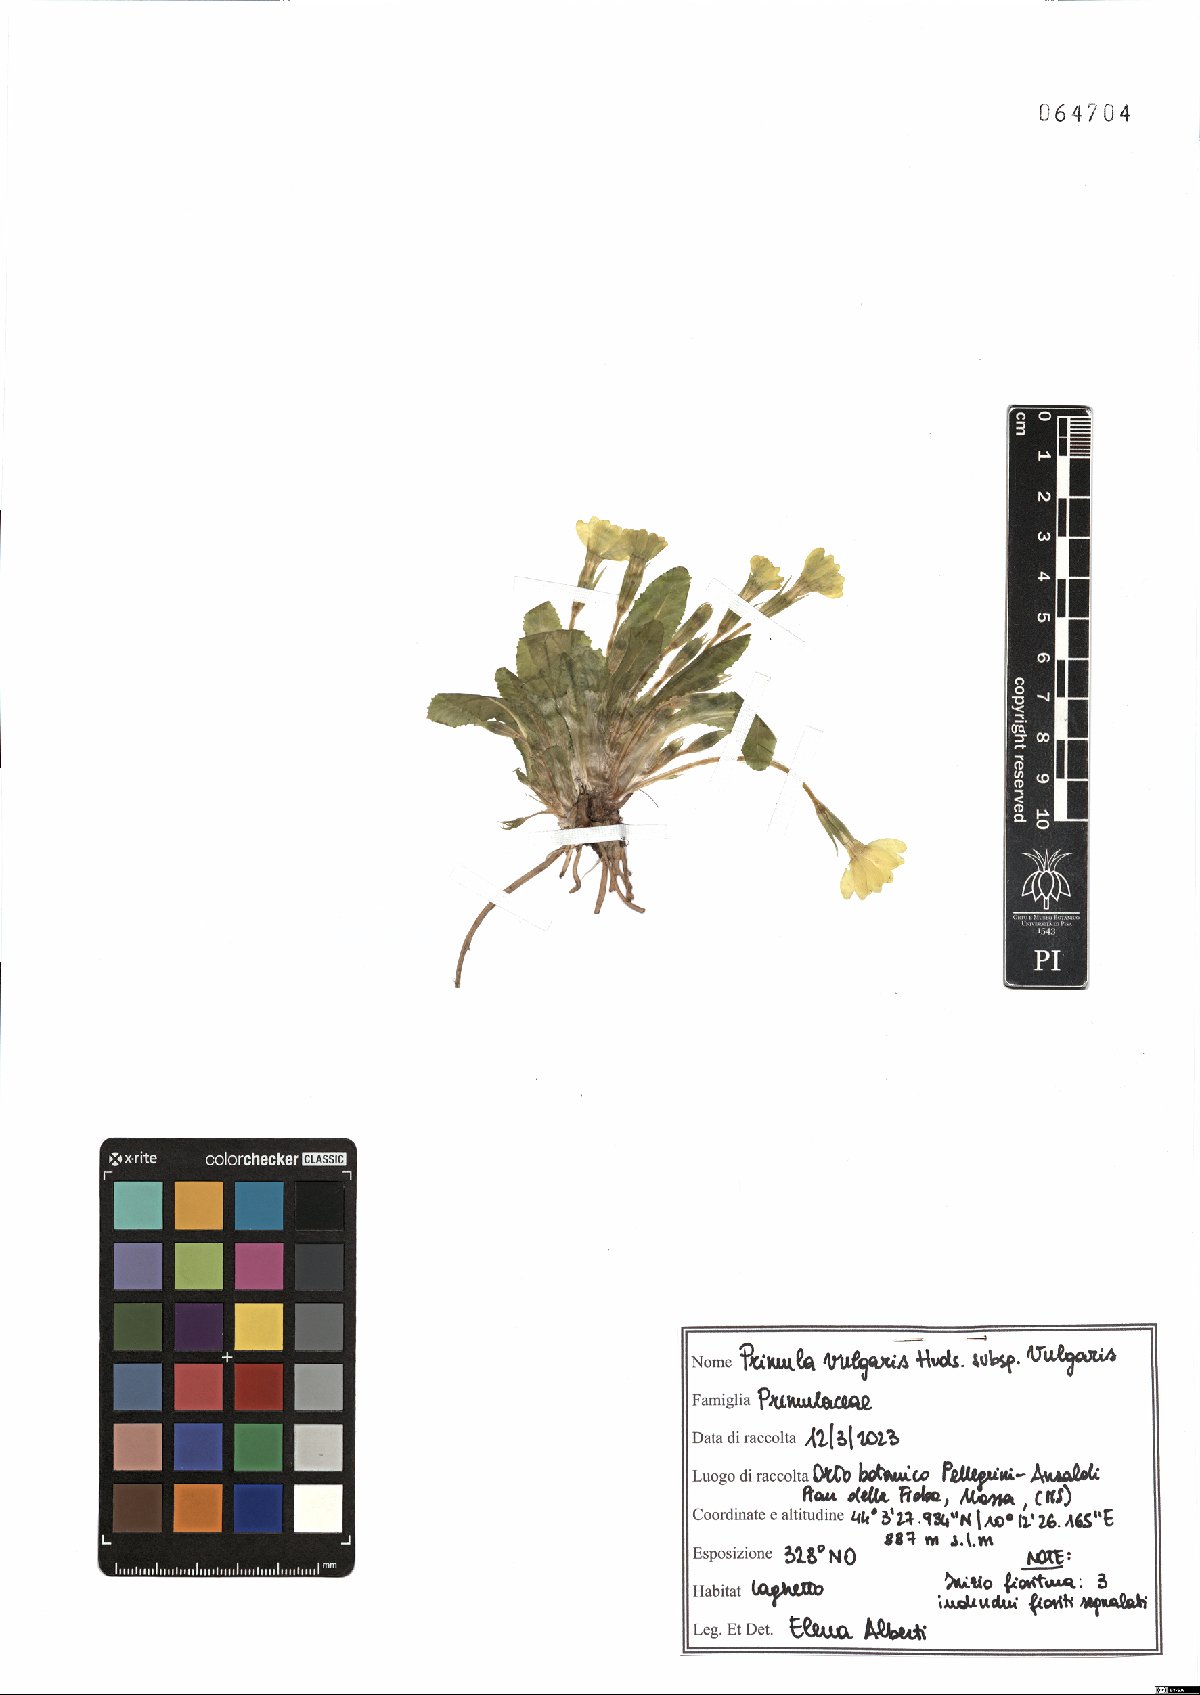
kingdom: Plantae
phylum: Tracheophyta
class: Magnoliopsida
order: Ericales
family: Primulaceae
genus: Primula
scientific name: Primula vulgaris
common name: Primrose
